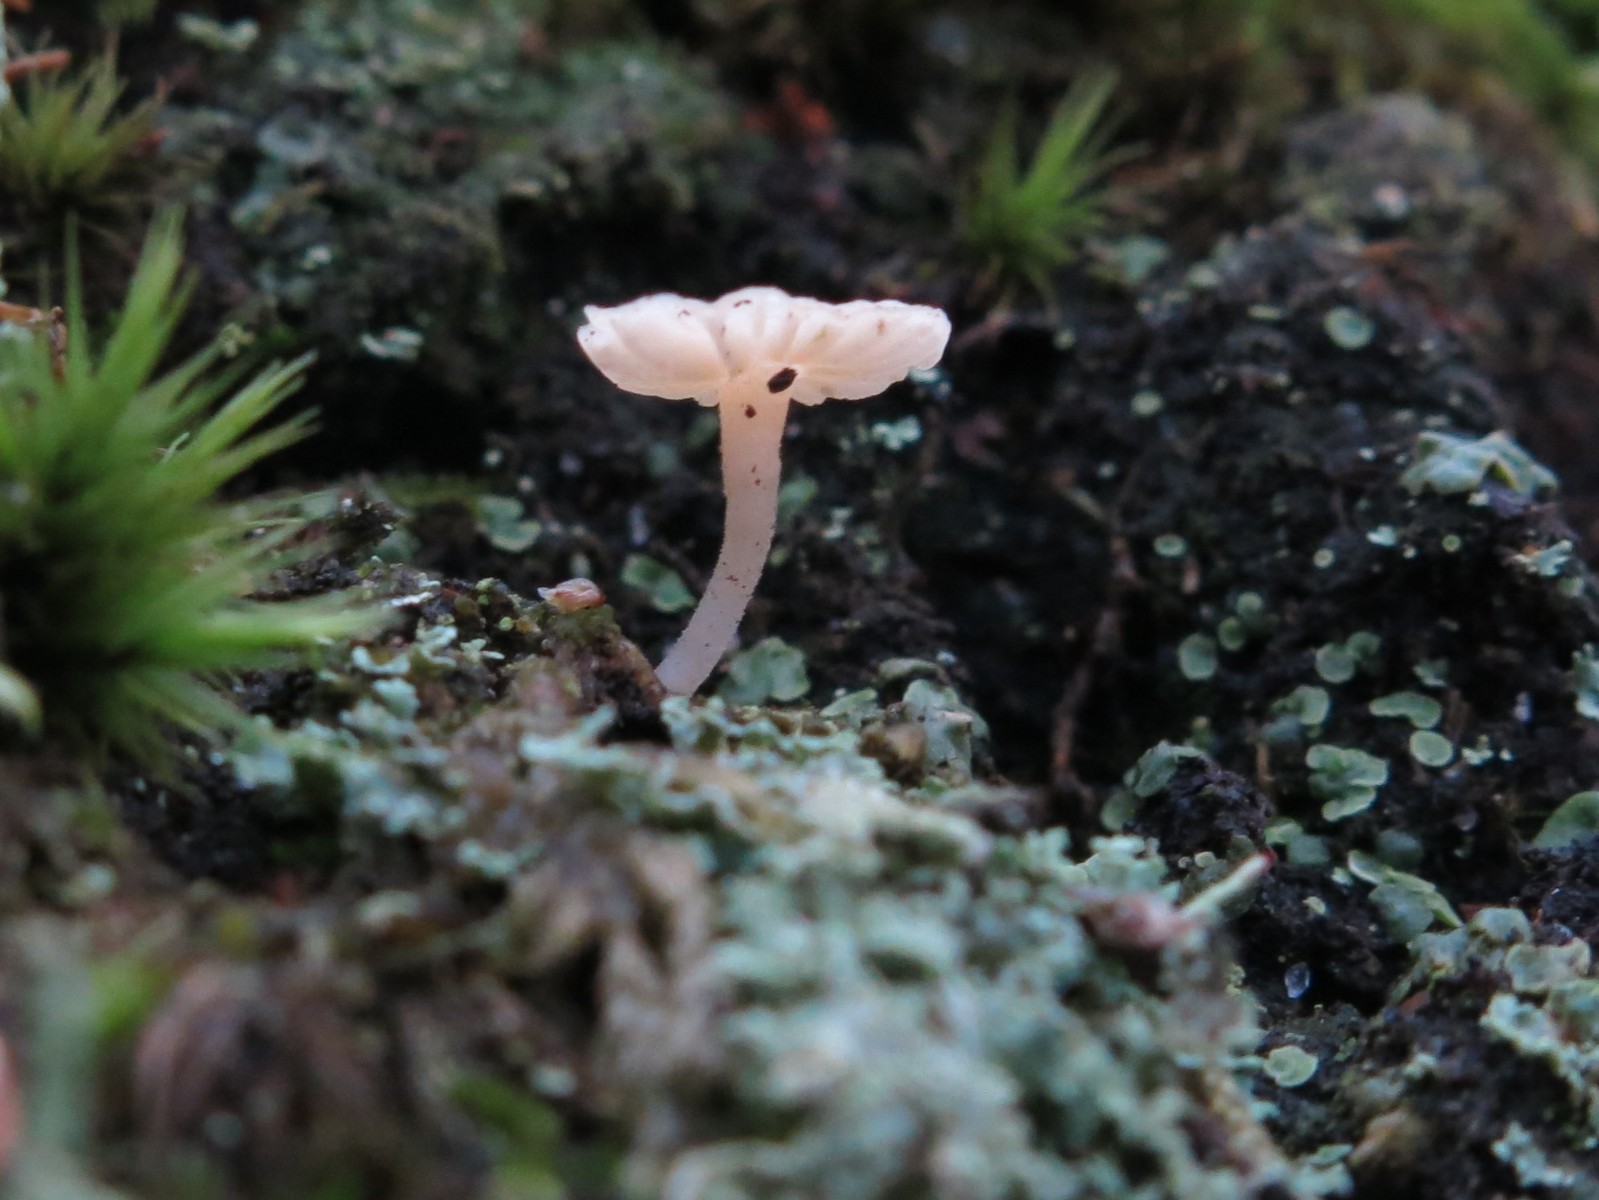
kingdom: Fungi
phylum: Basidiomycota
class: Agaricomycetes
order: Agaricales
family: Hygrophoraceae
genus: Lichenomphalia
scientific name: Lichenomphalia hudsoniana
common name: thallus-lavhat
